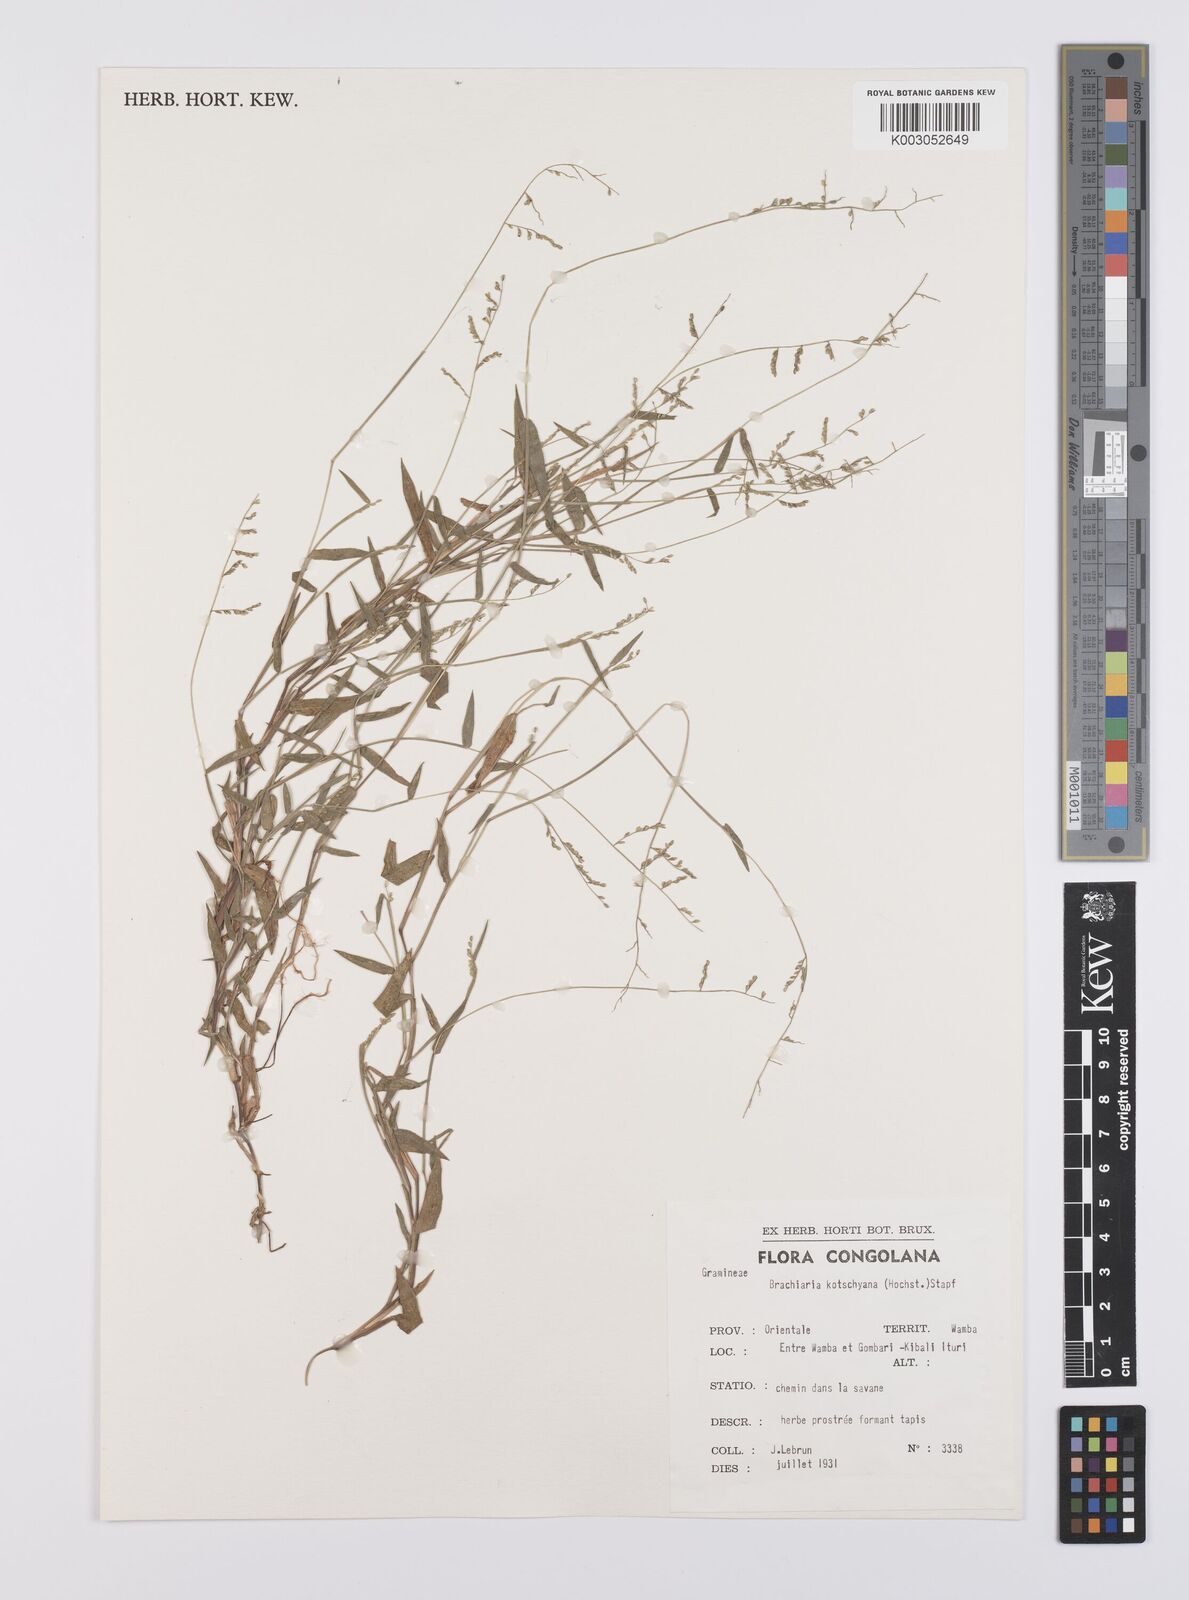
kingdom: Plantae
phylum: Tracheophyta
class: Liliopsida
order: Poales
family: Poaceae
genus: Urochloa
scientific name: Urochloa comata
